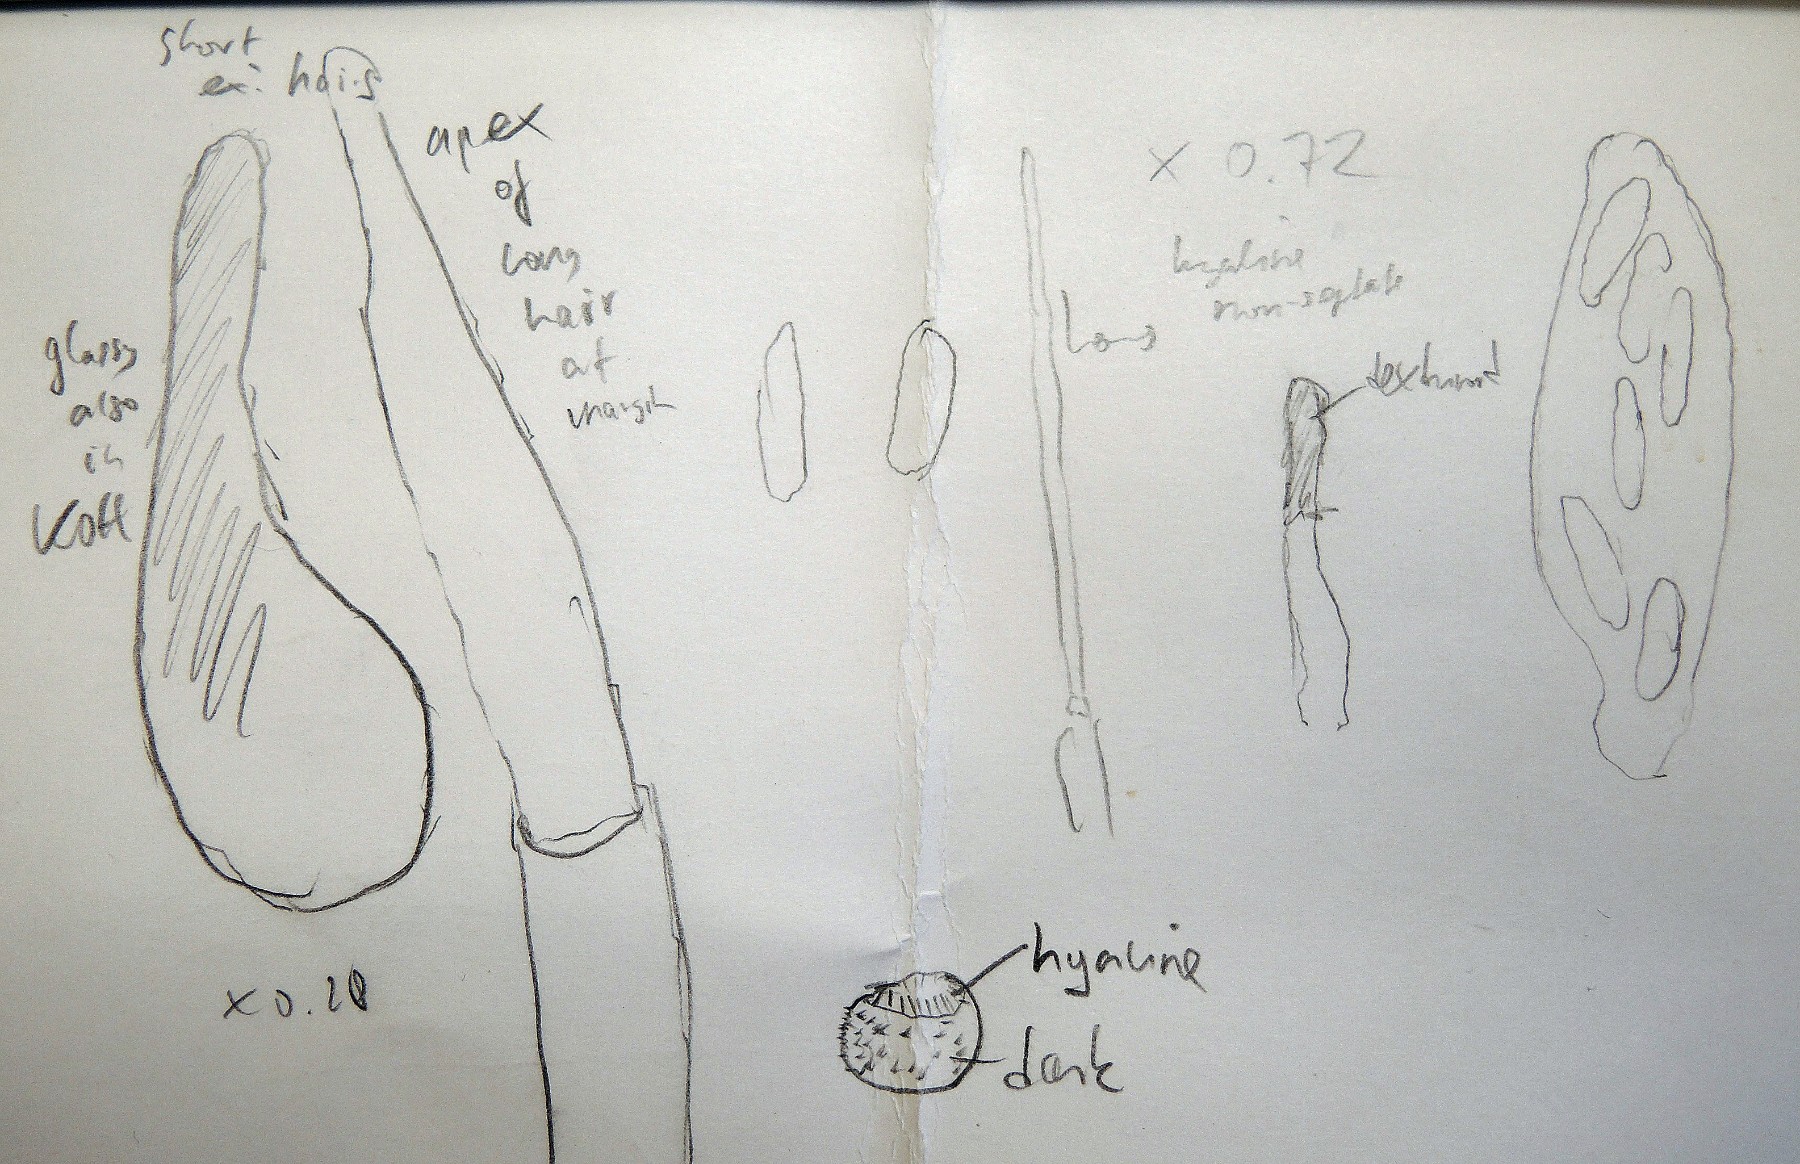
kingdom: Fungi
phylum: Ascomycota
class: Leotiomycetes
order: Helotiales
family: Hyaloscyphaceae
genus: Protounguicularia
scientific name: Protounguicularia transiens
